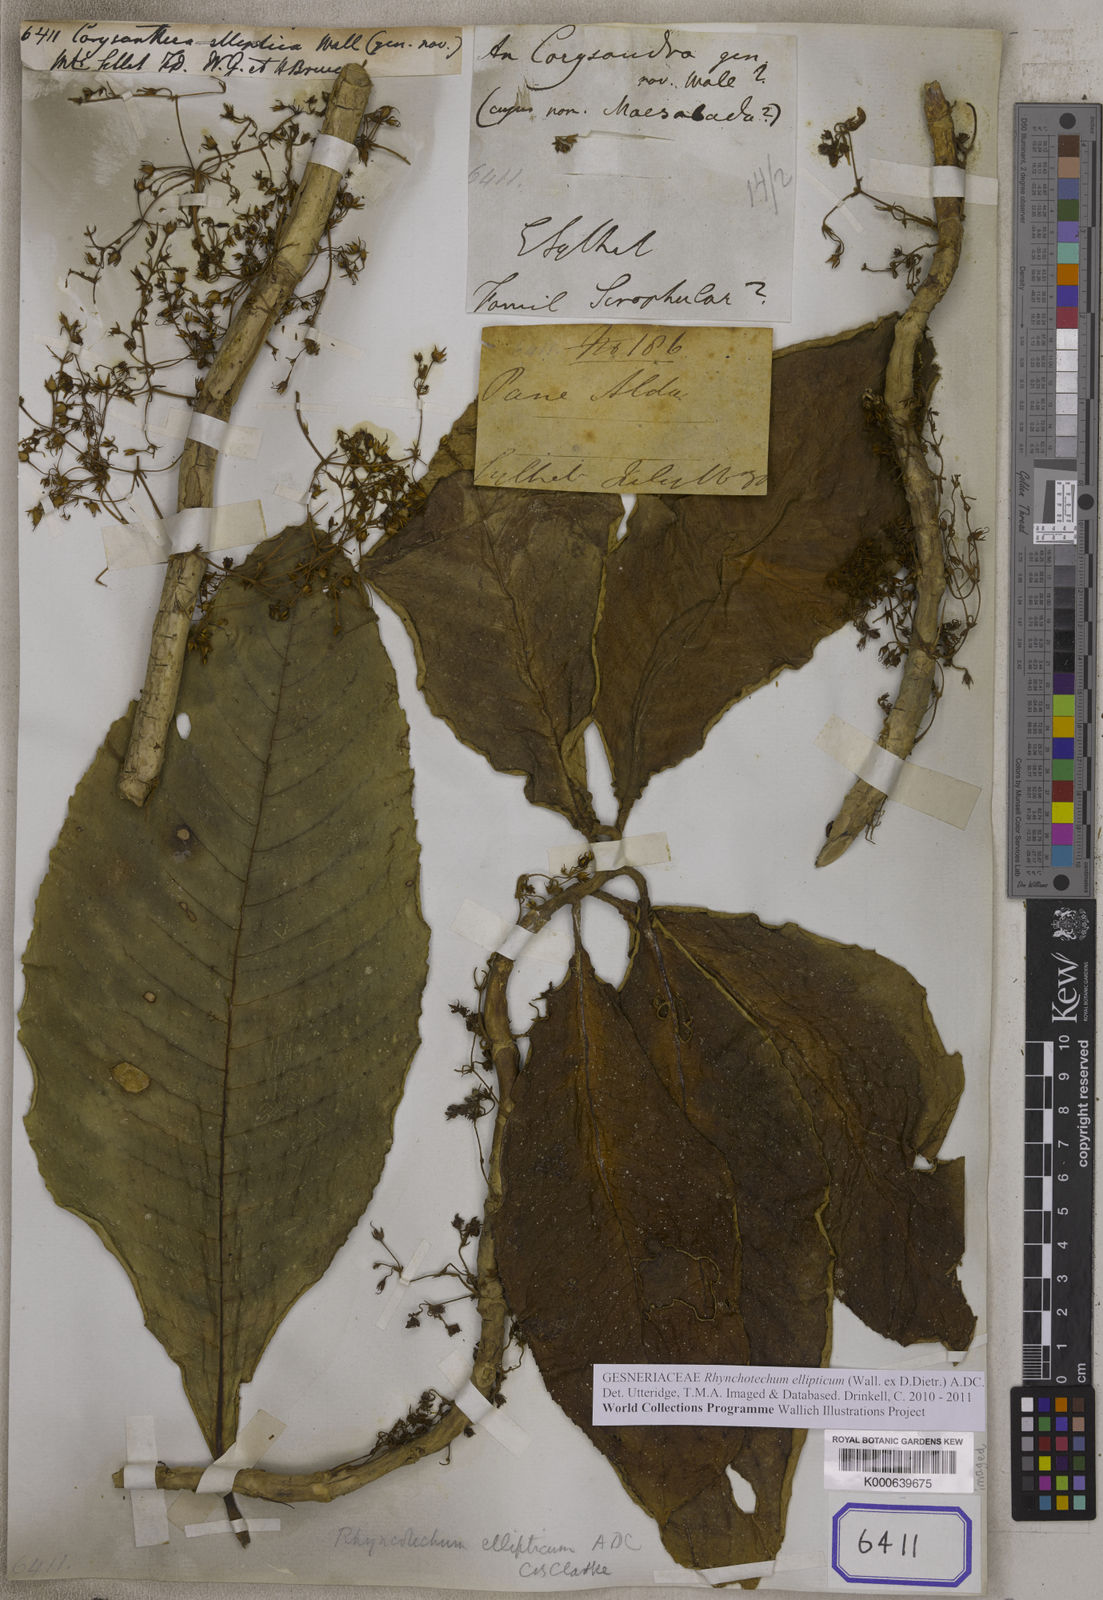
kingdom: Plantae
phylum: Tracheophyta
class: Magnoliopsida
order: Lamiales
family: Gesneriaceae
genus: Corysanthera
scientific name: Corysanthera
